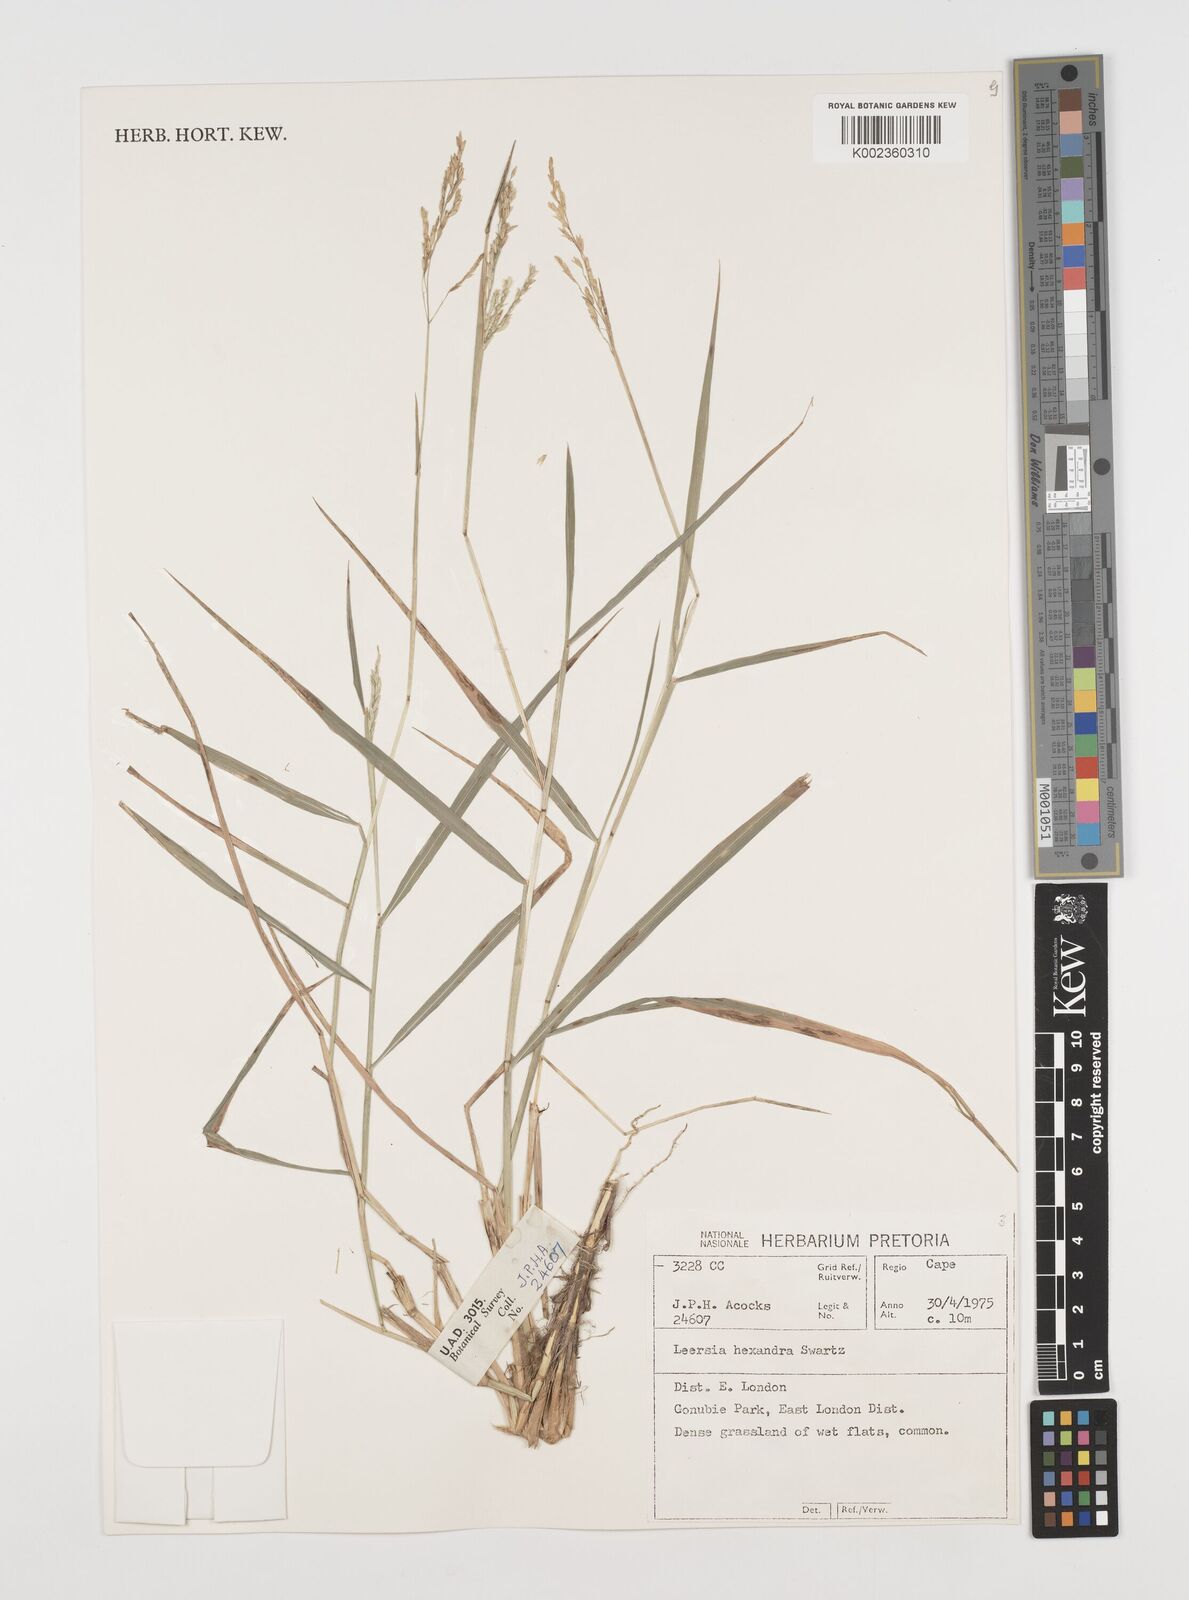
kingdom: Plantae
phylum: Tracheophyta
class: Liliopsida
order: Poales
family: Poaceae
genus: Leersia
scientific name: Leersia hexandra
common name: Southern cut grass
